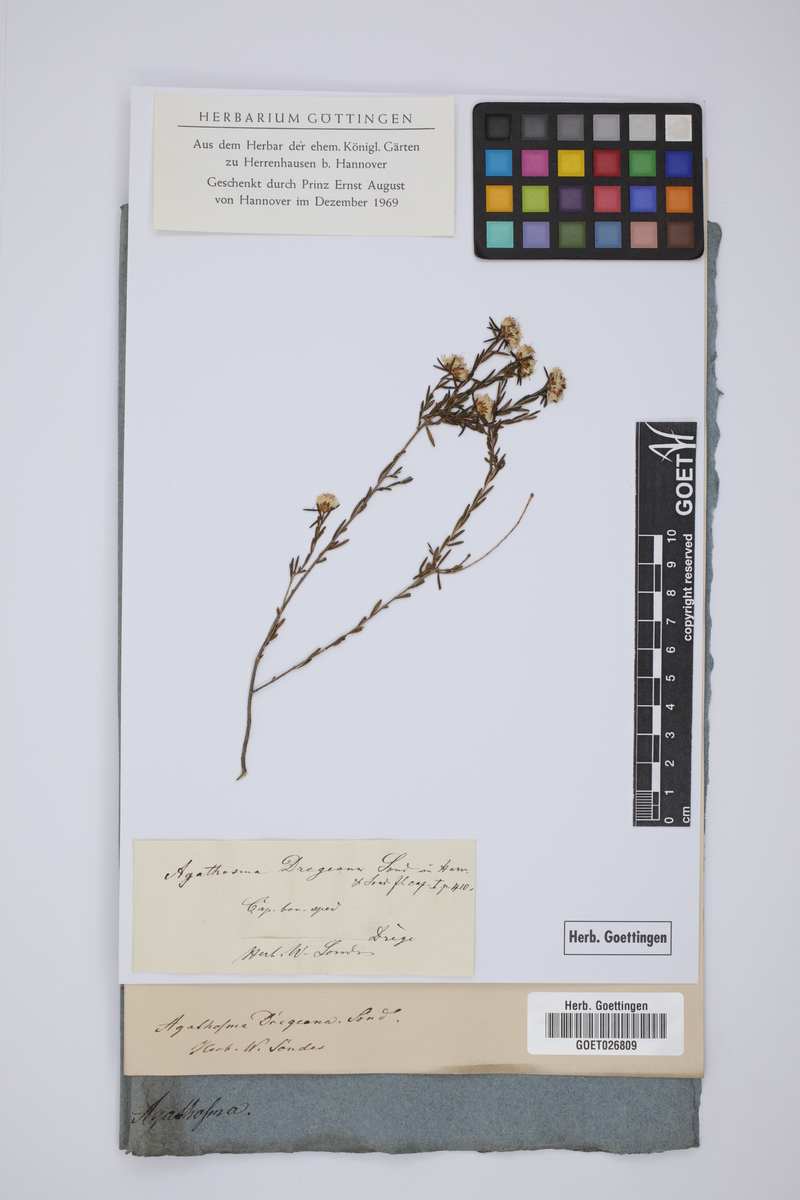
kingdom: Plantae
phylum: Tracheophyta
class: Magnoliopsida
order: Sapindales
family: Rutaceae
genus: Agathosma
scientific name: Agathosma dregeana
